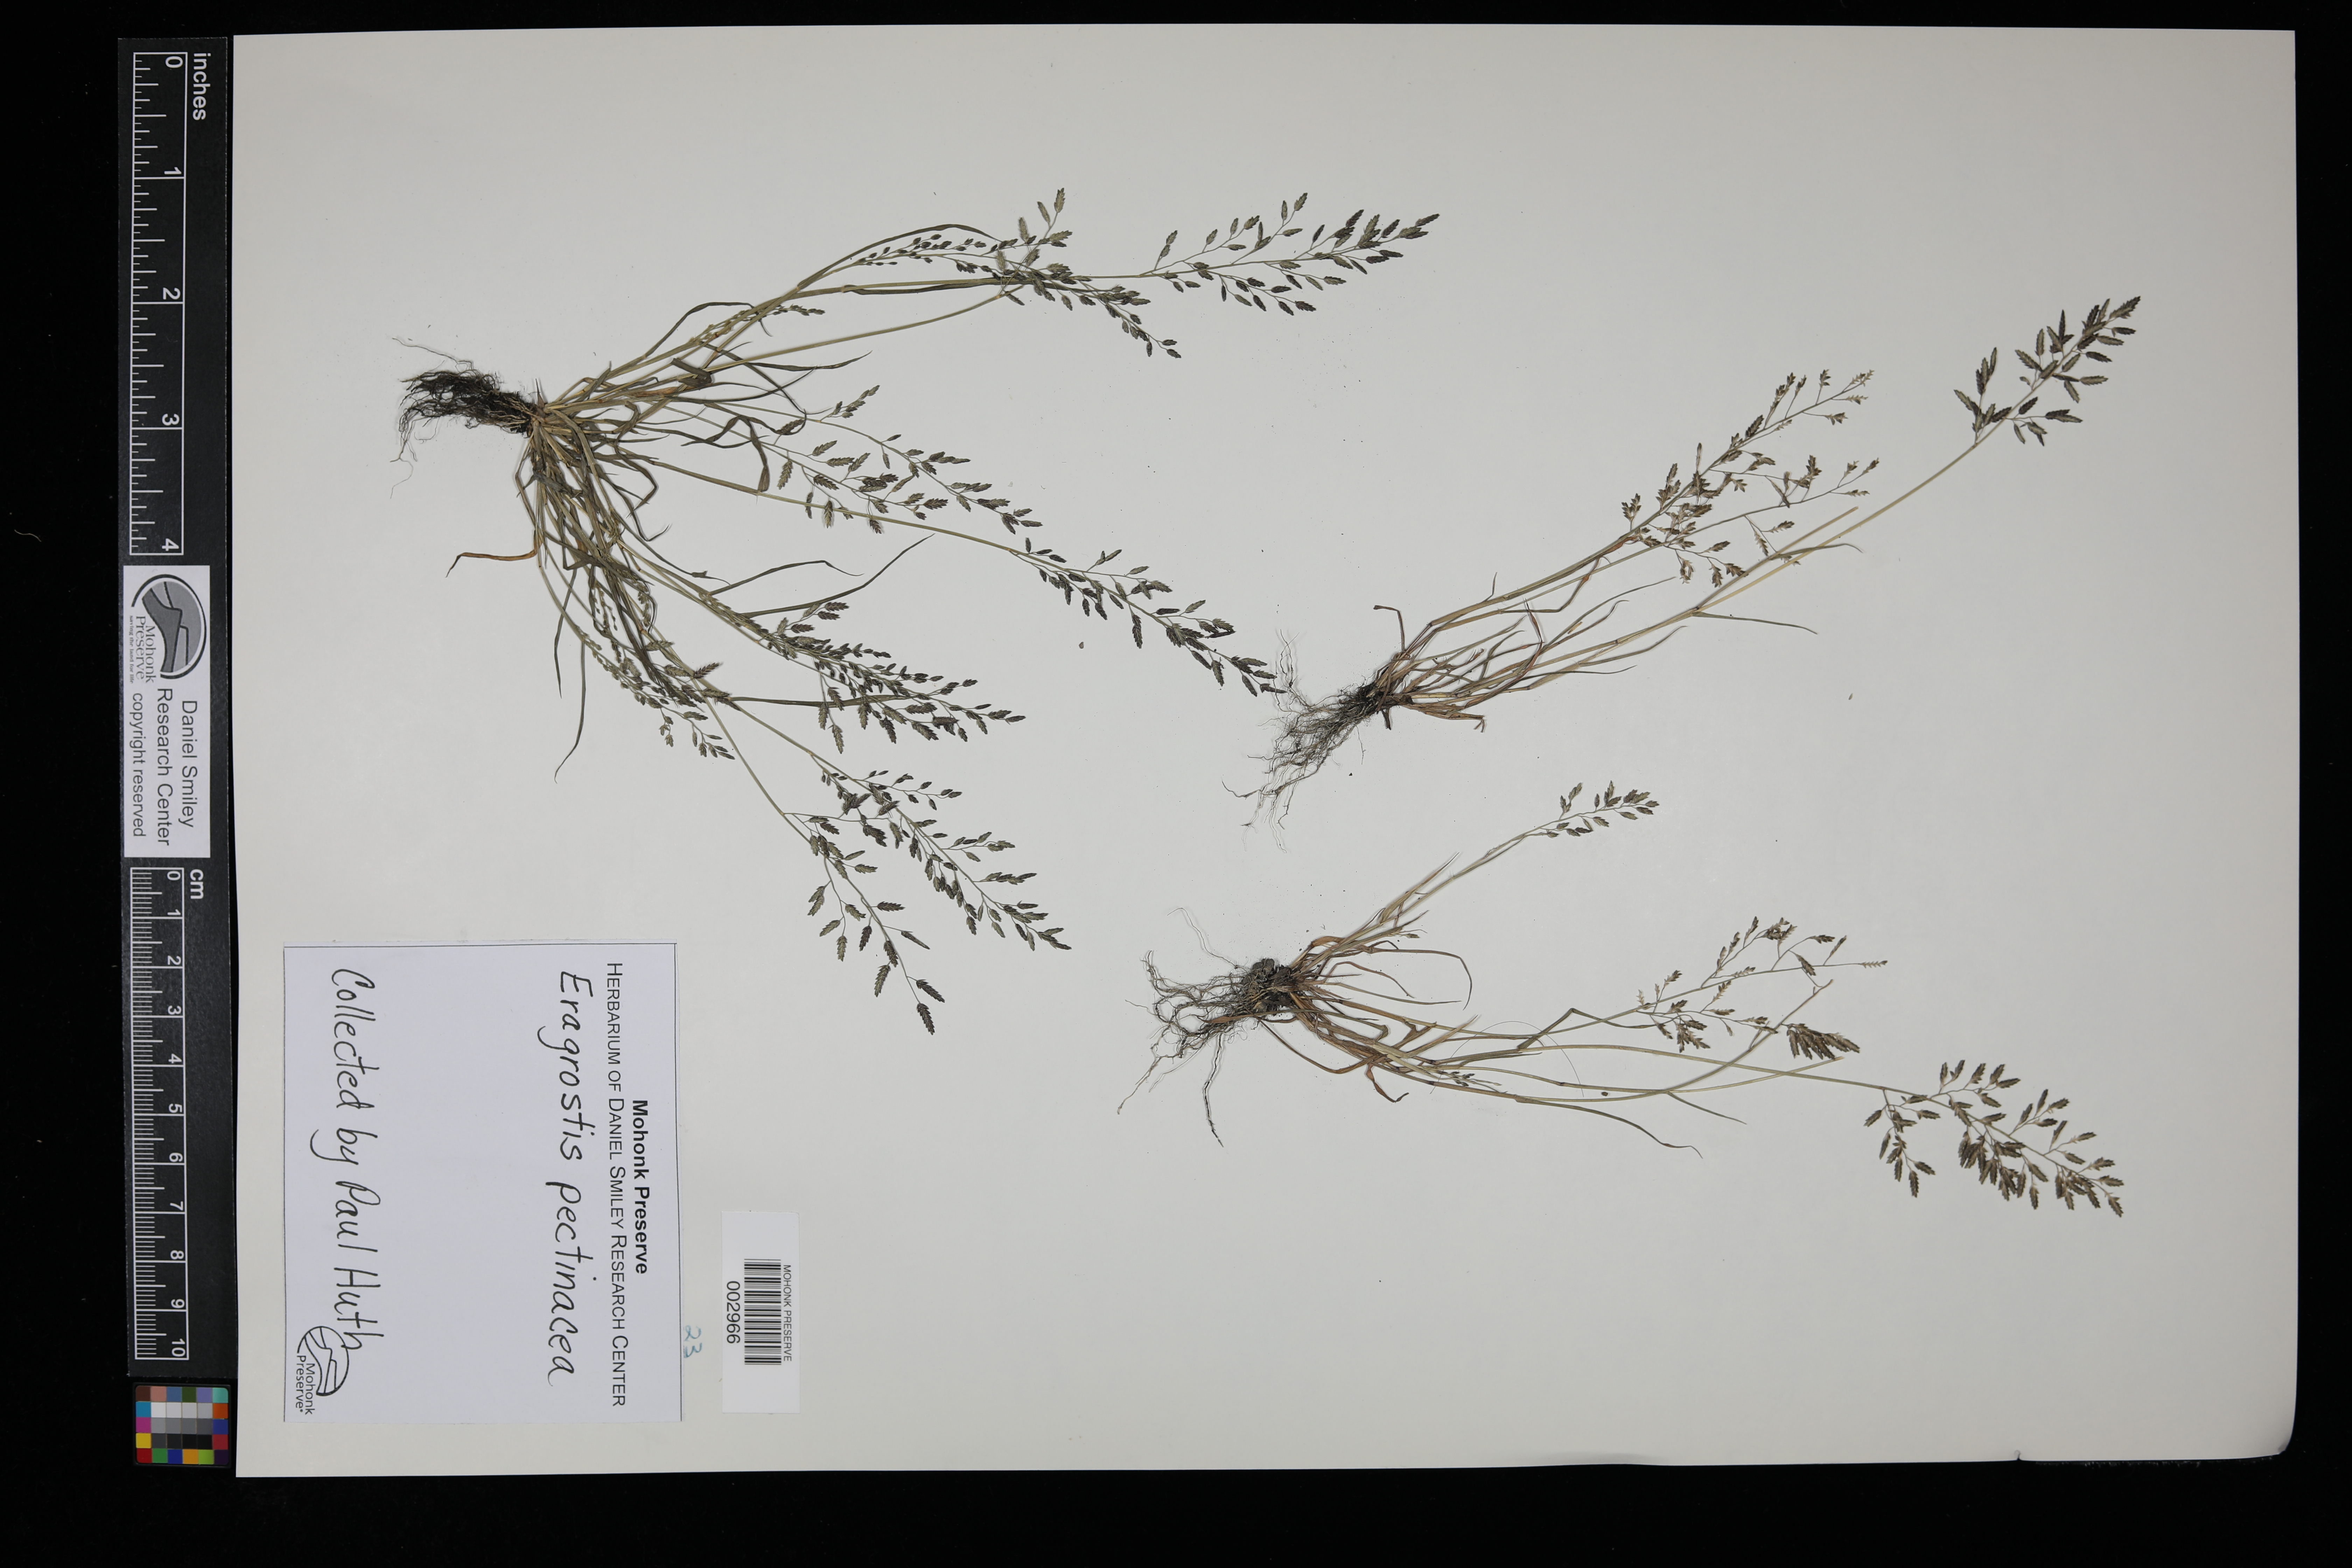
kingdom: Plantae
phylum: Tracheophyta
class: Liliopsida
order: Poales
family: Poaceae
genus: Eragrostis
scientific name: Eragrostis pectinacea
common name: Tufted lovegrass
